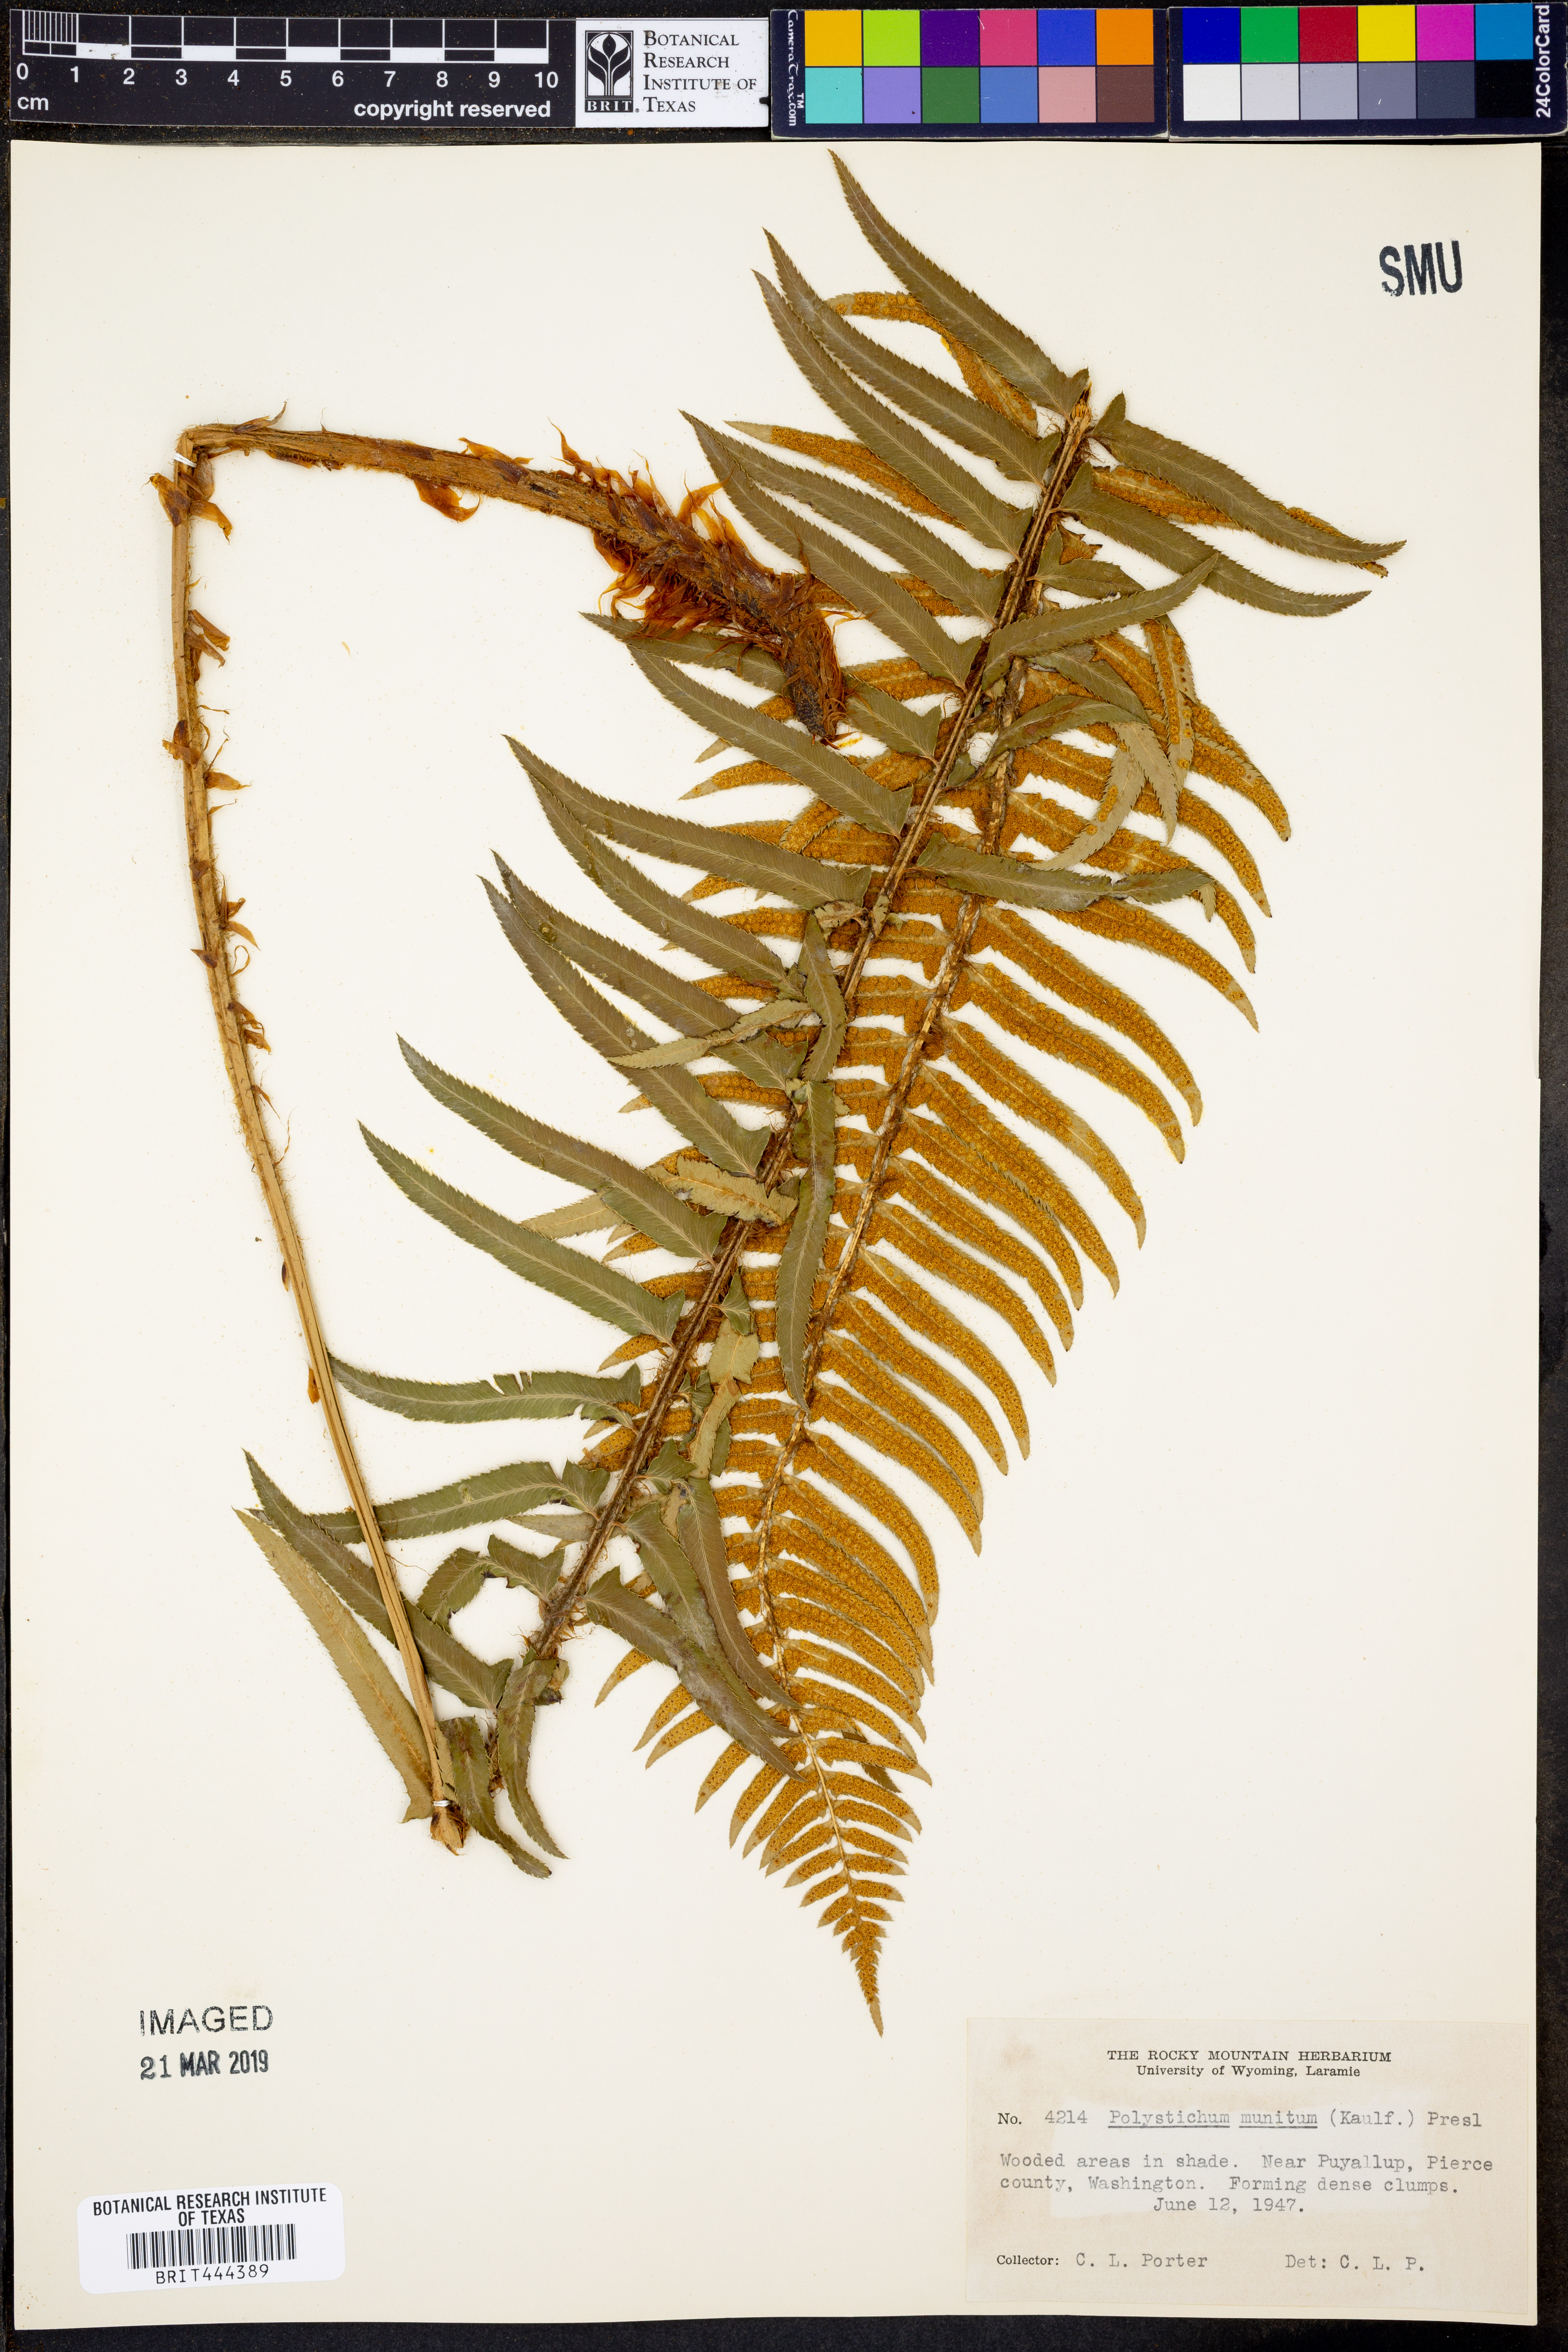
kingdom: Plantae
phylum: Tracheophyta
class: Polypodiopsida
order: Polypodiales
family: Dryopteridaceae
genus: Polystichum
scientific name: Polystichum munitum
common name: Western sword-fern
